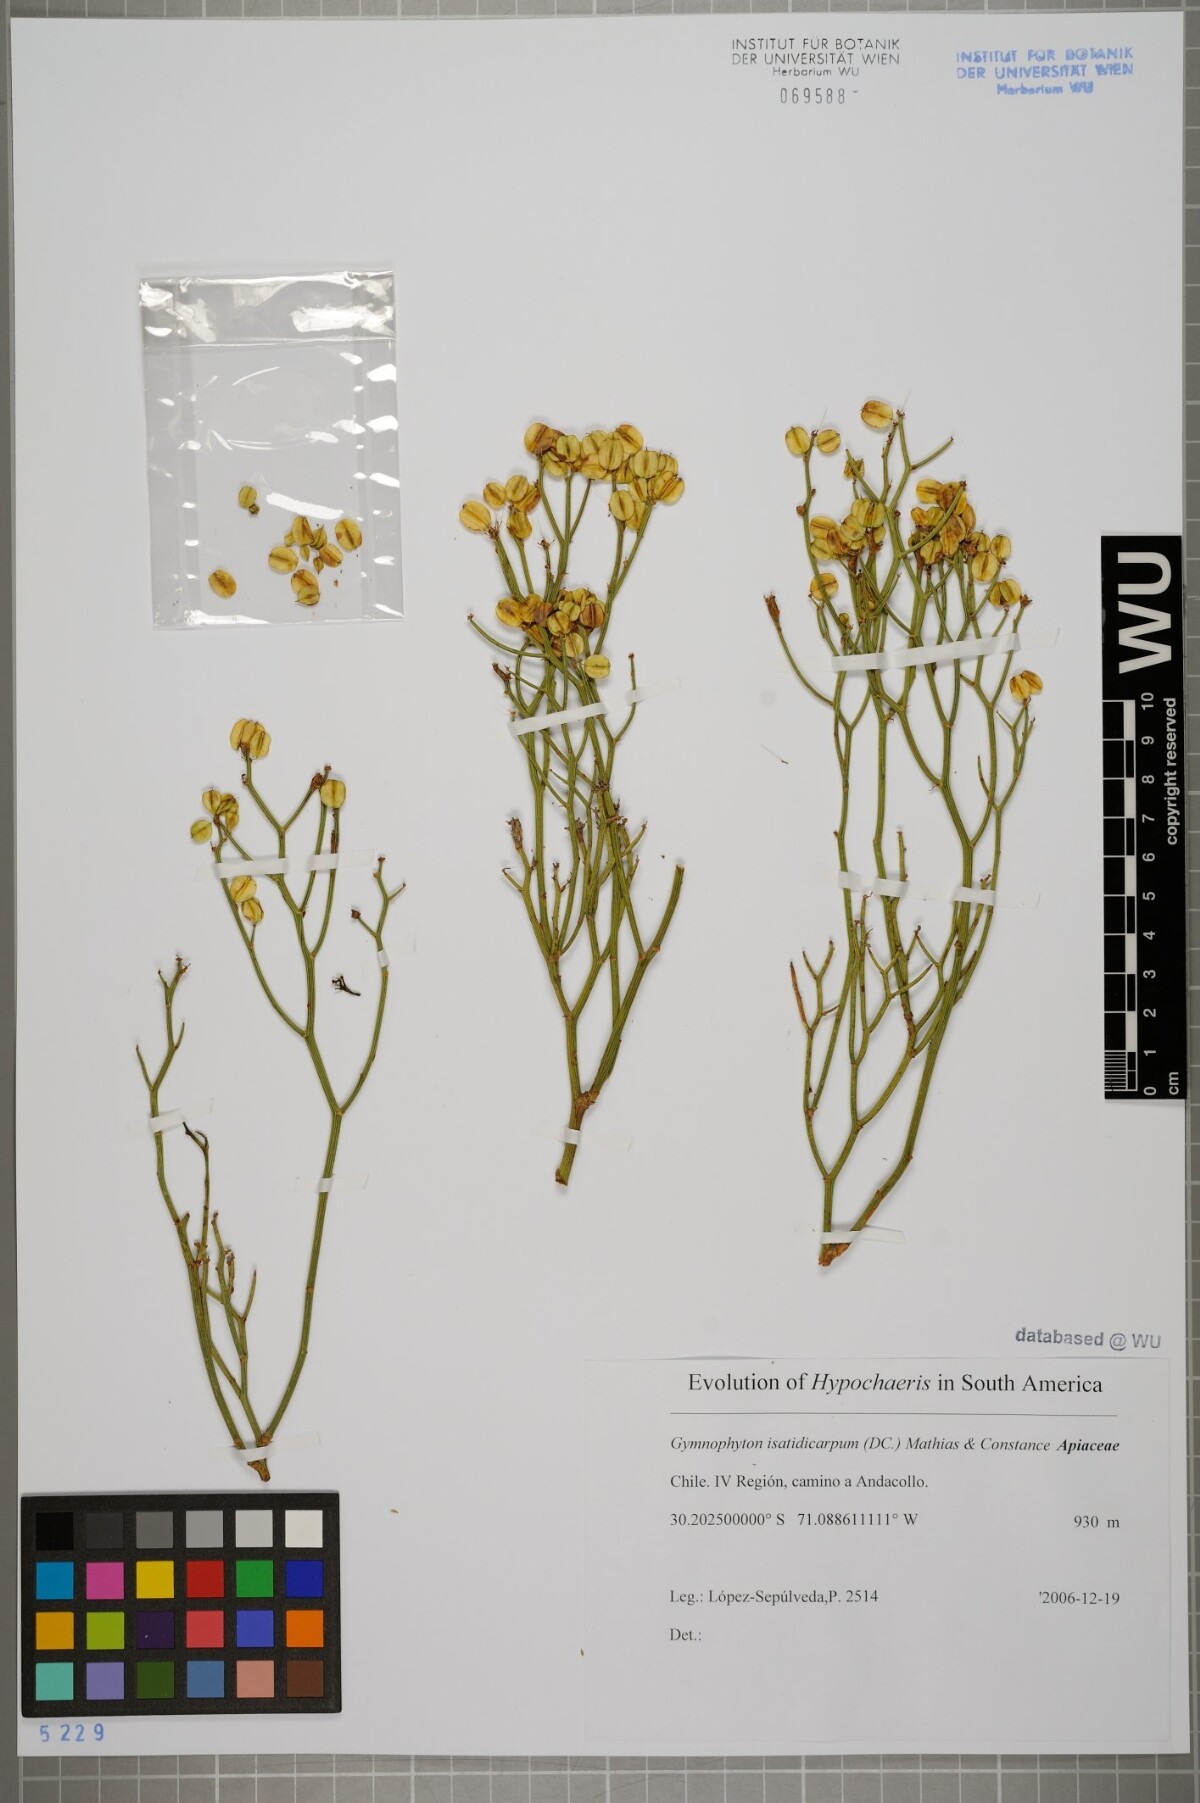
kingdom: Plantae
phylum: Tracheophyta
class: Magnoliopsida
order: Apiales
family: Apiaceae
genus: Gymnophyton
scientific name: Gymnophyton isatidicarpum
